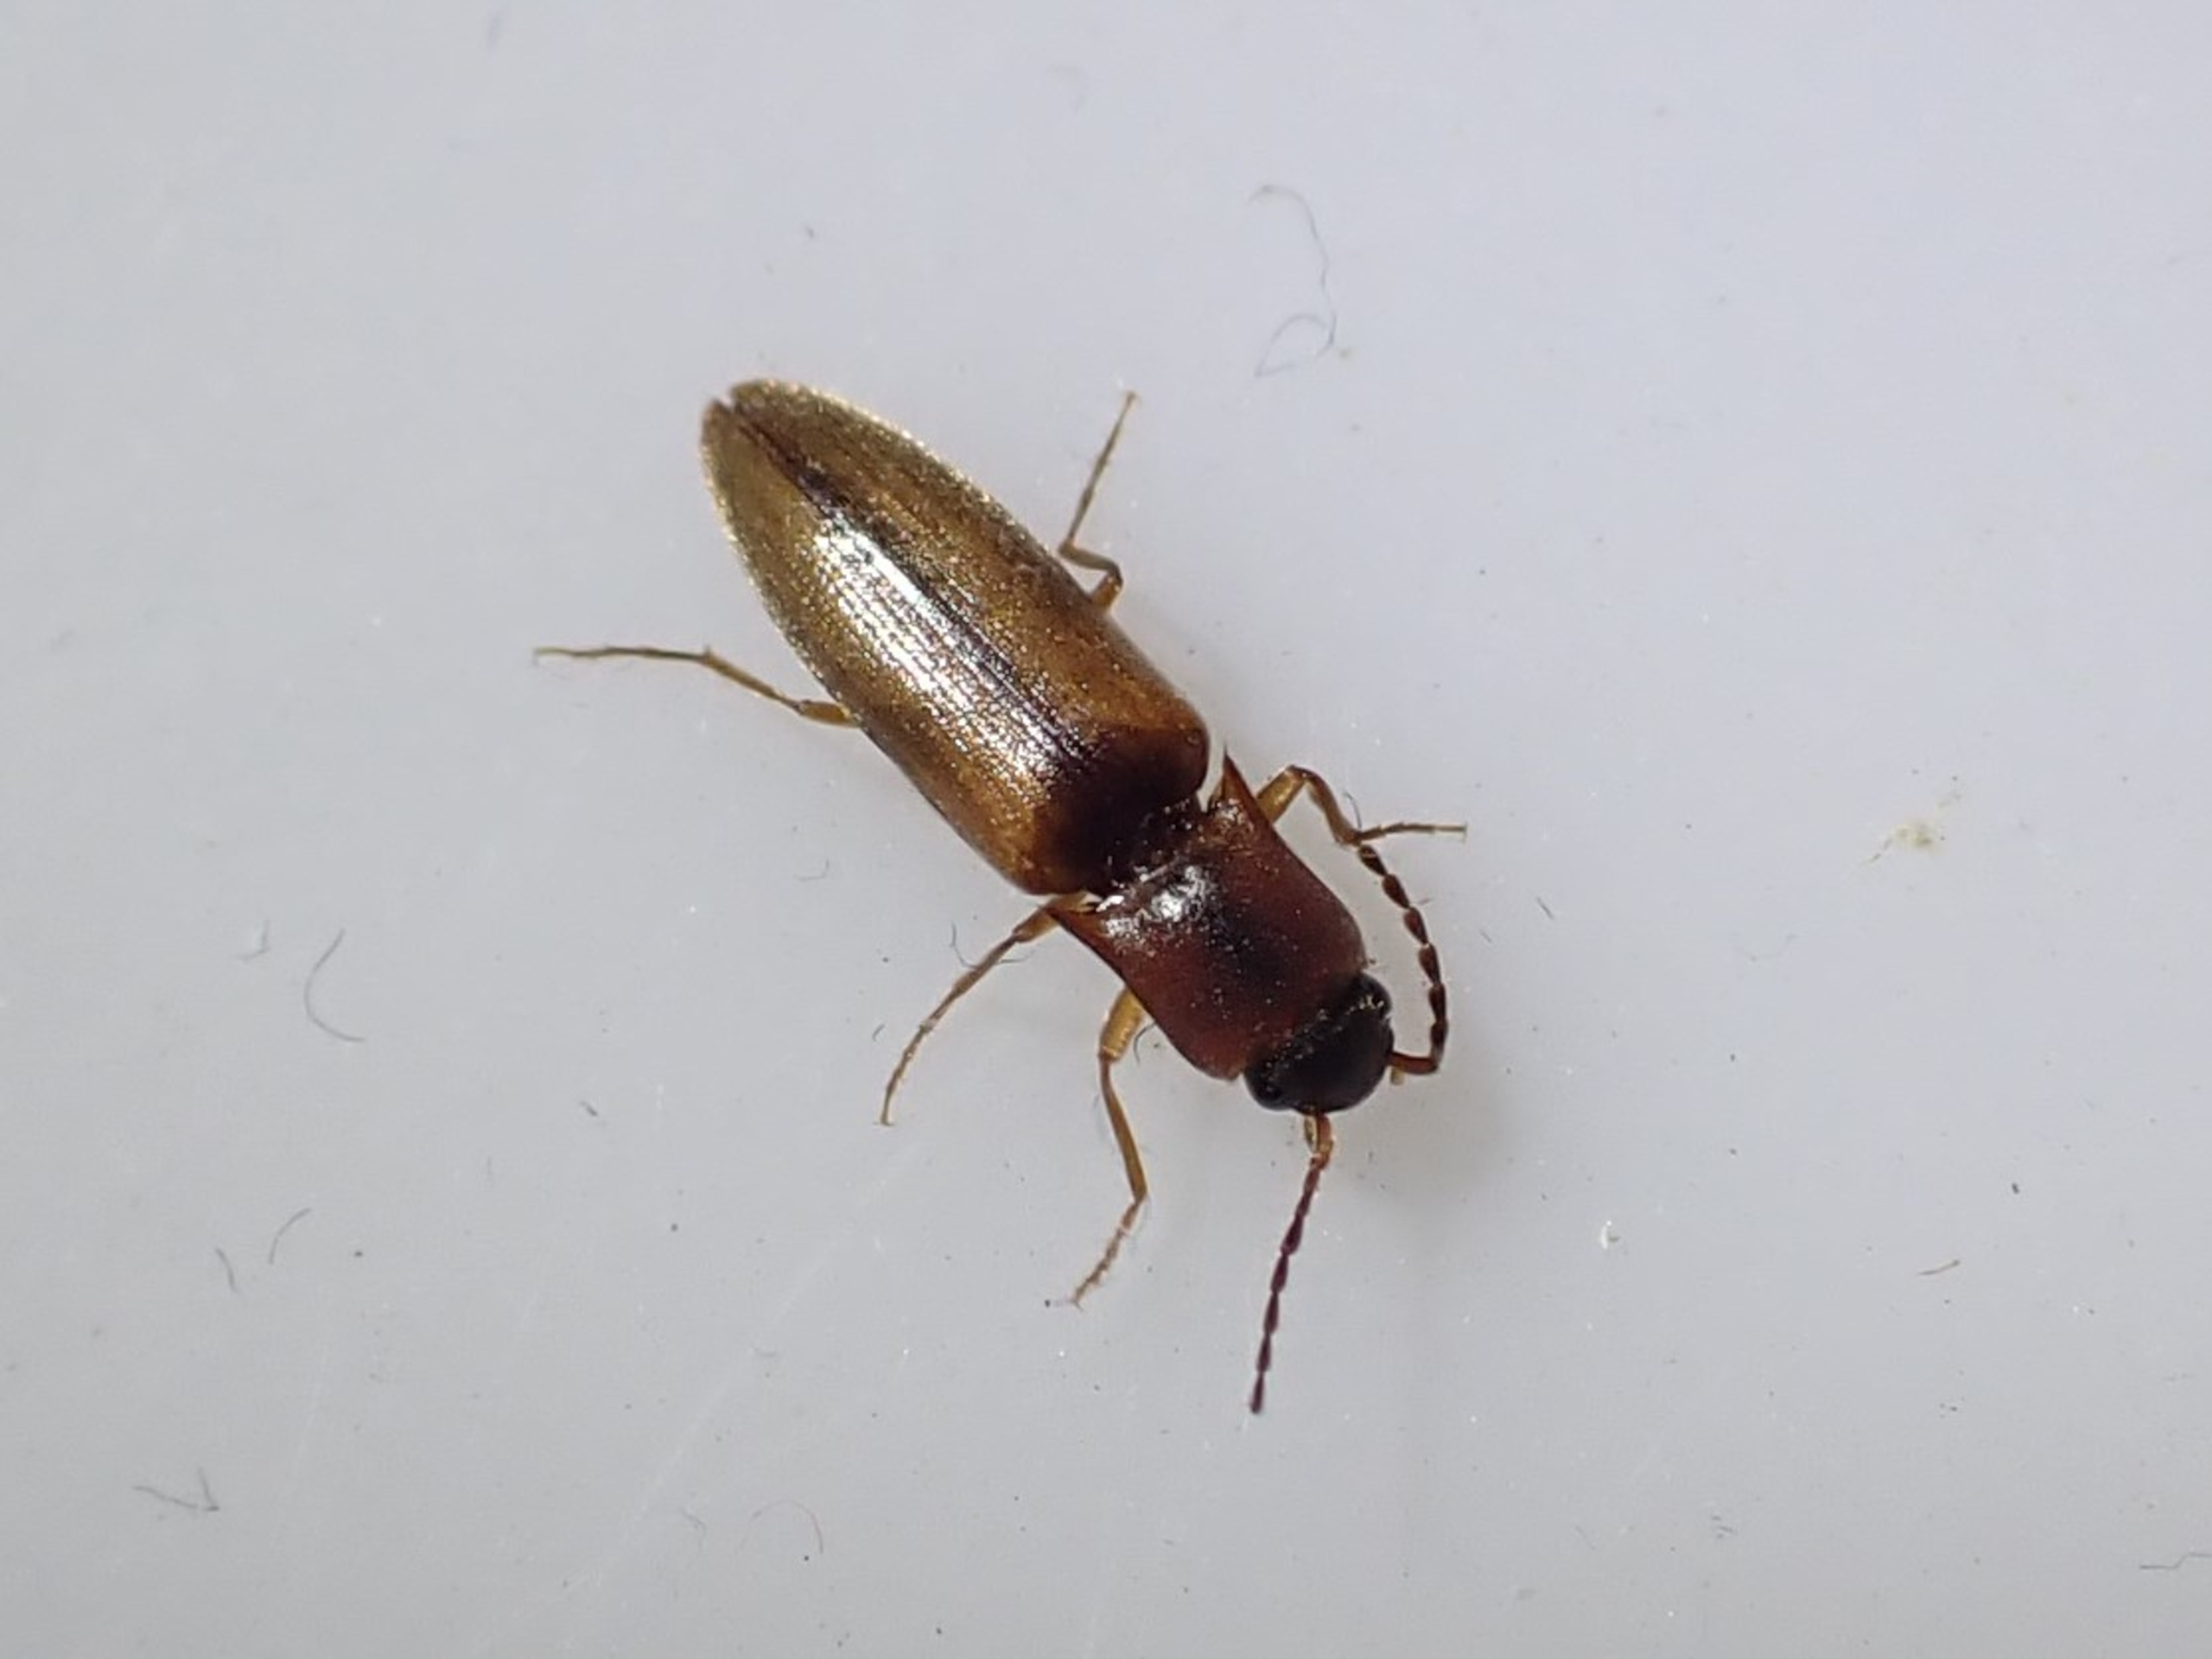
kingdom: Animalia
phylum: Arthropoda
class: Insecta
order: Coleoptera
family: Elateridae
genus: Dalopius
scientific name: Dalopius marginatus
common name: Smal kornsmælder
